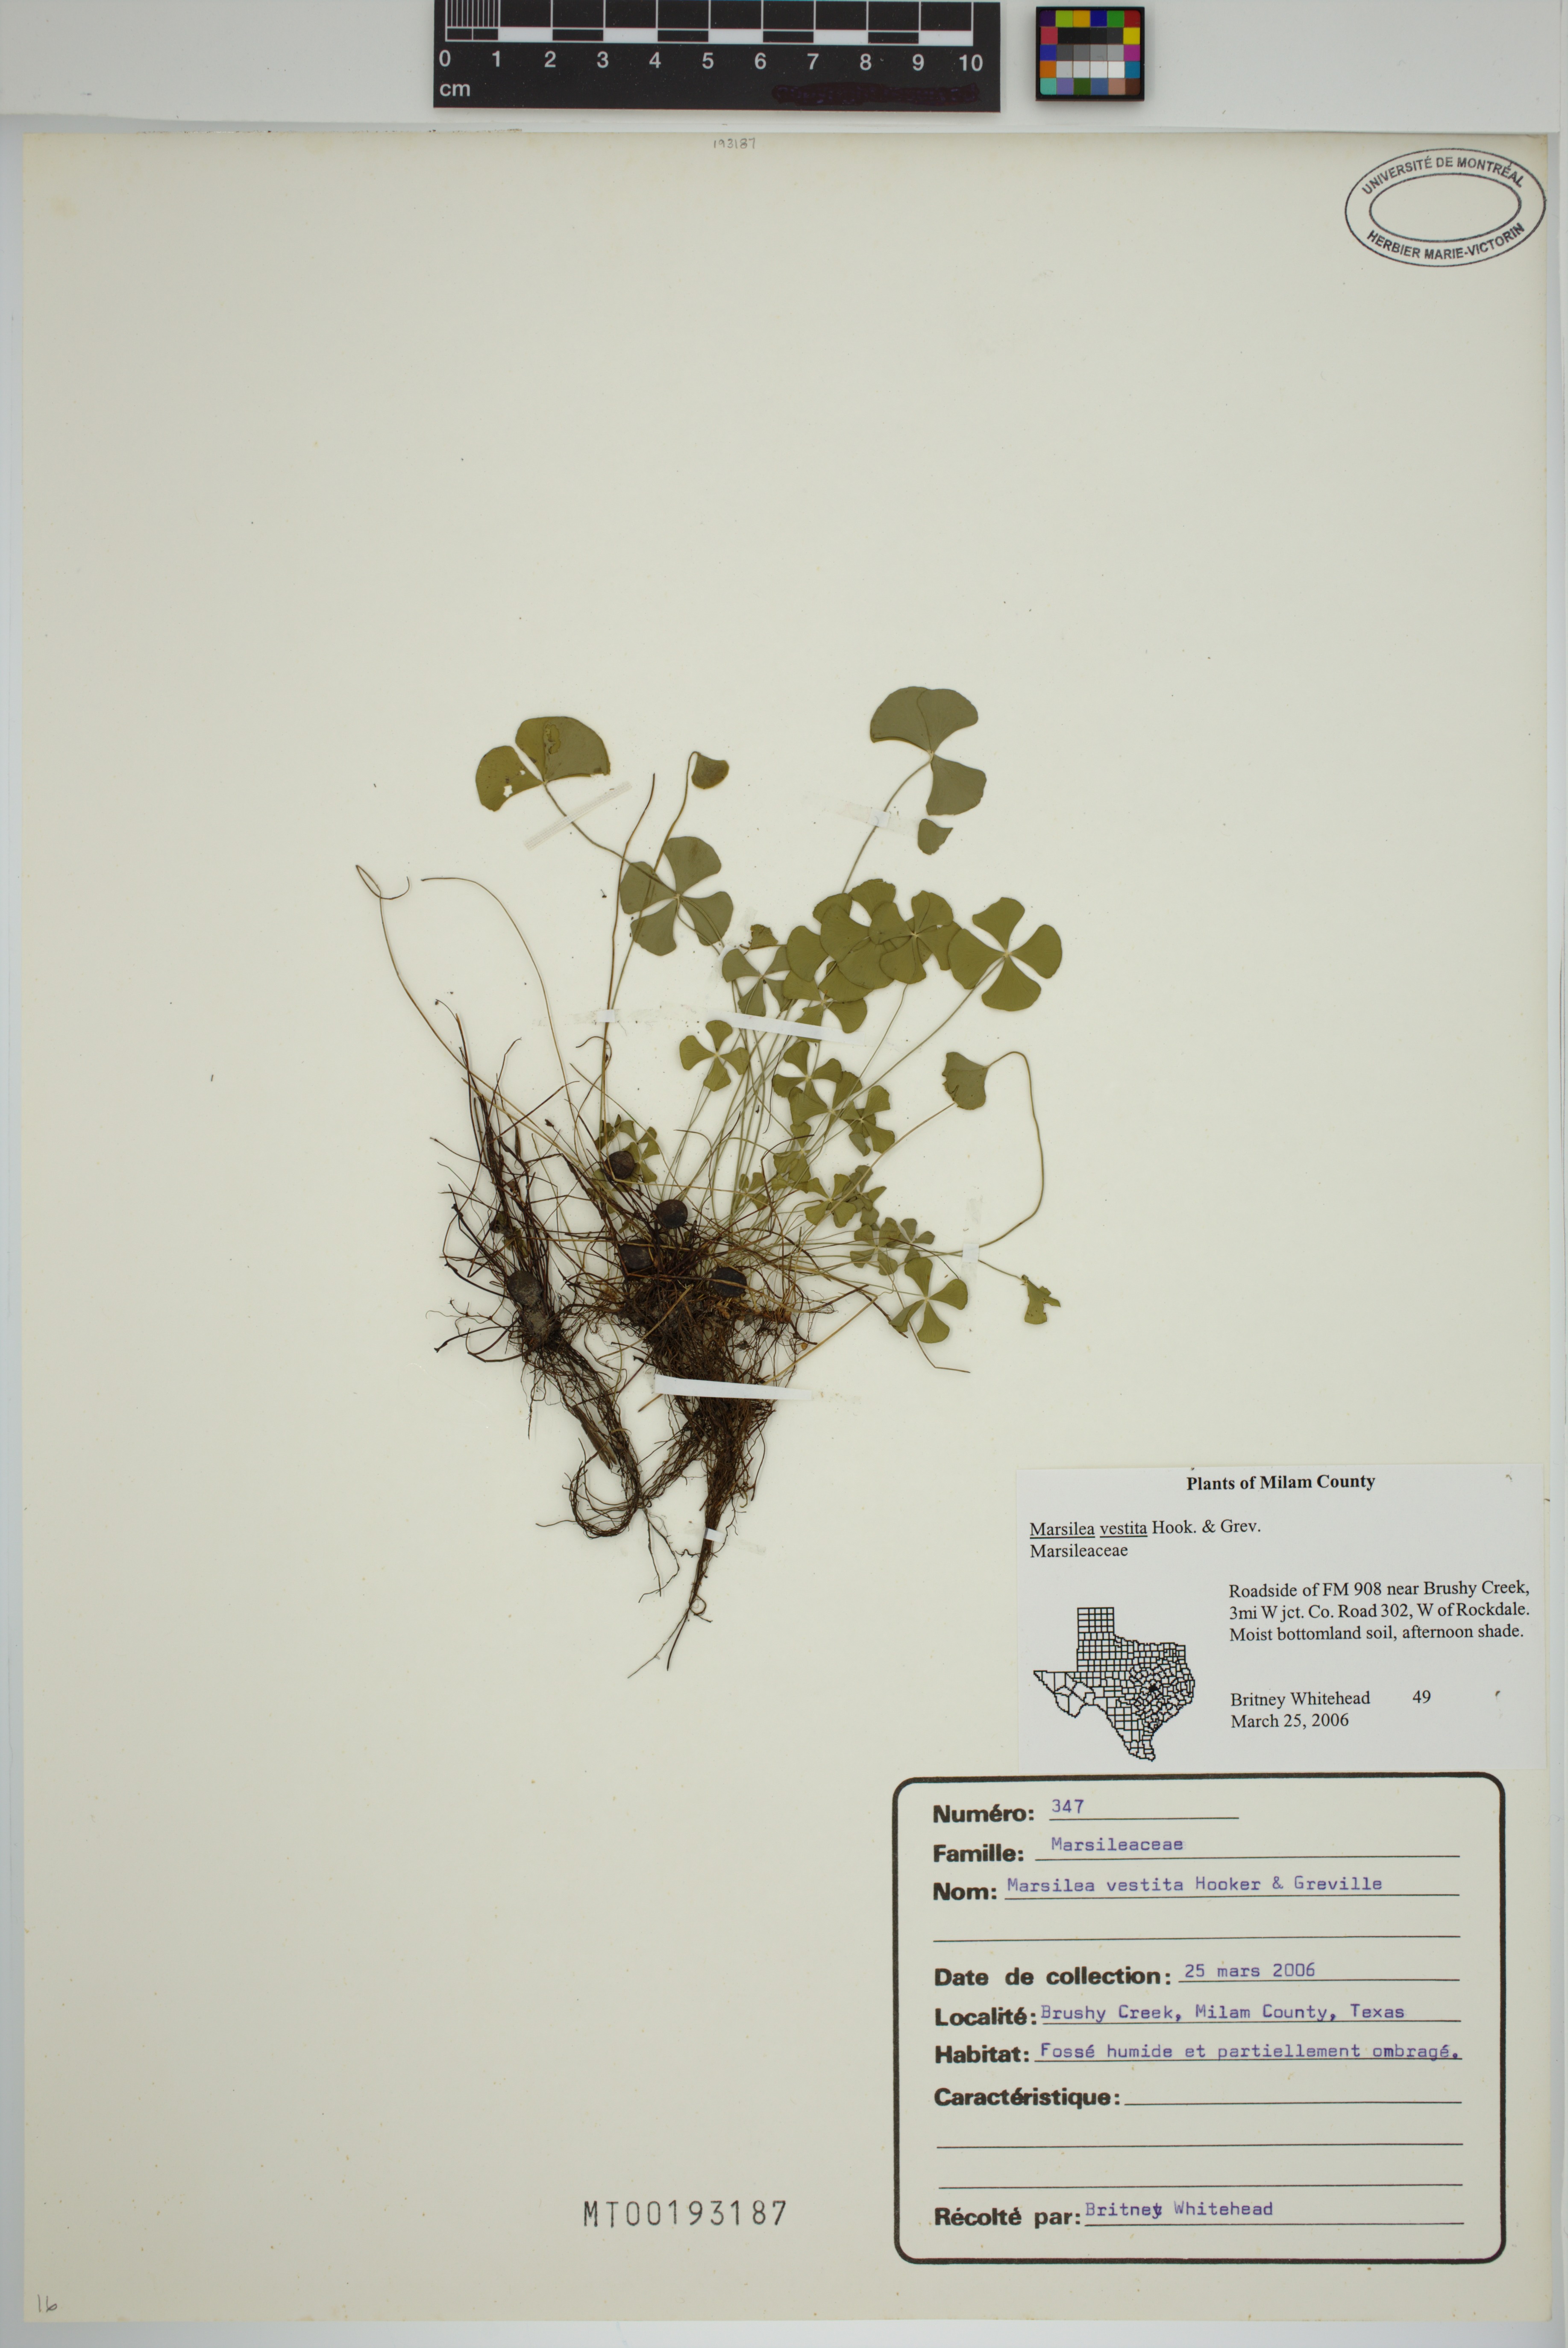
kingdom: Plantae
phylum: Tracheophyta
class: Polypodiopsida
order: Salviniales
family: Marsileaceae
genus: Marsilea
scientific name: Marsilea vestita
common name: Hooked-pepperwort
